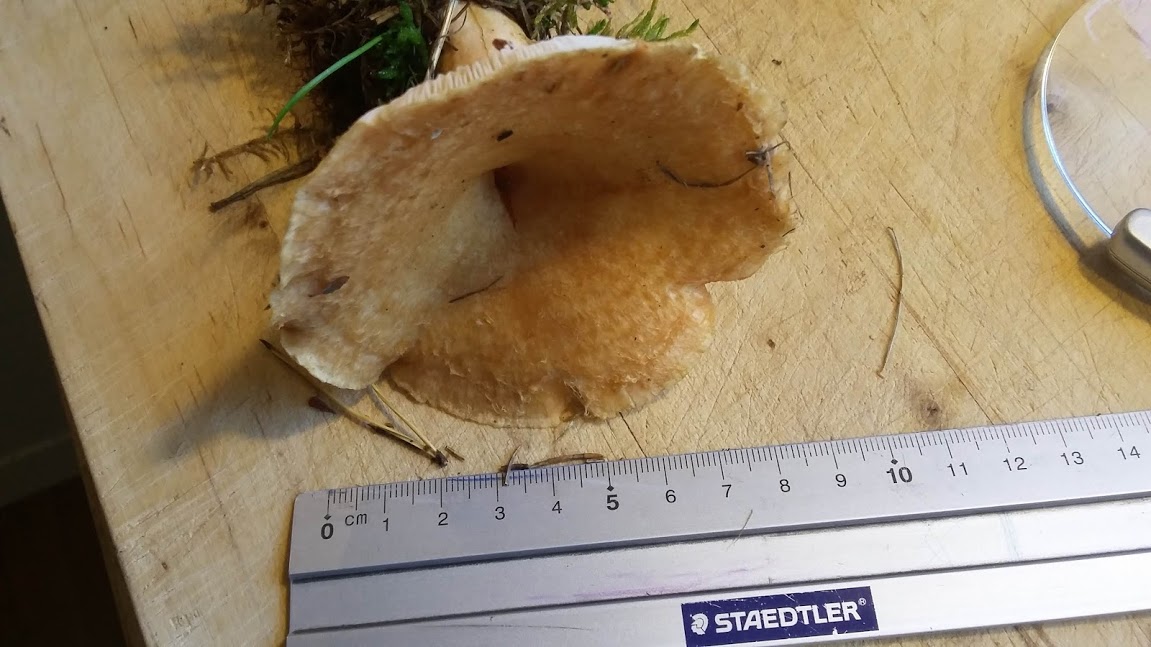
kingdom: Fungi
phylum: Basidiomycota
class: Agaricomycetes
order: Russulales
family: Russulaceae
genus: Lactarius
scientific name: Lactarius
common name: mælkehat
